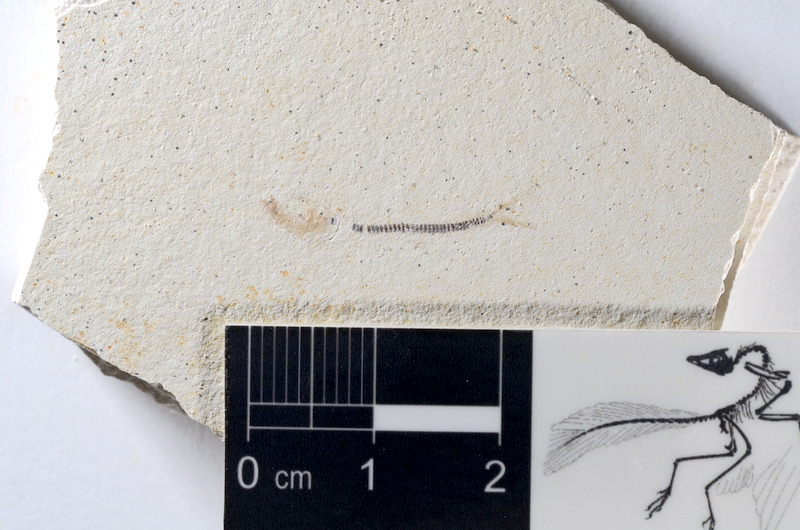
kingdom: Animalia
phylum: Chordata
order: Salmoniformes
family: Orthogonikleithridae
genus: Orthogonikleithrus
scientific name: Orthogonikleithrus hoelli
